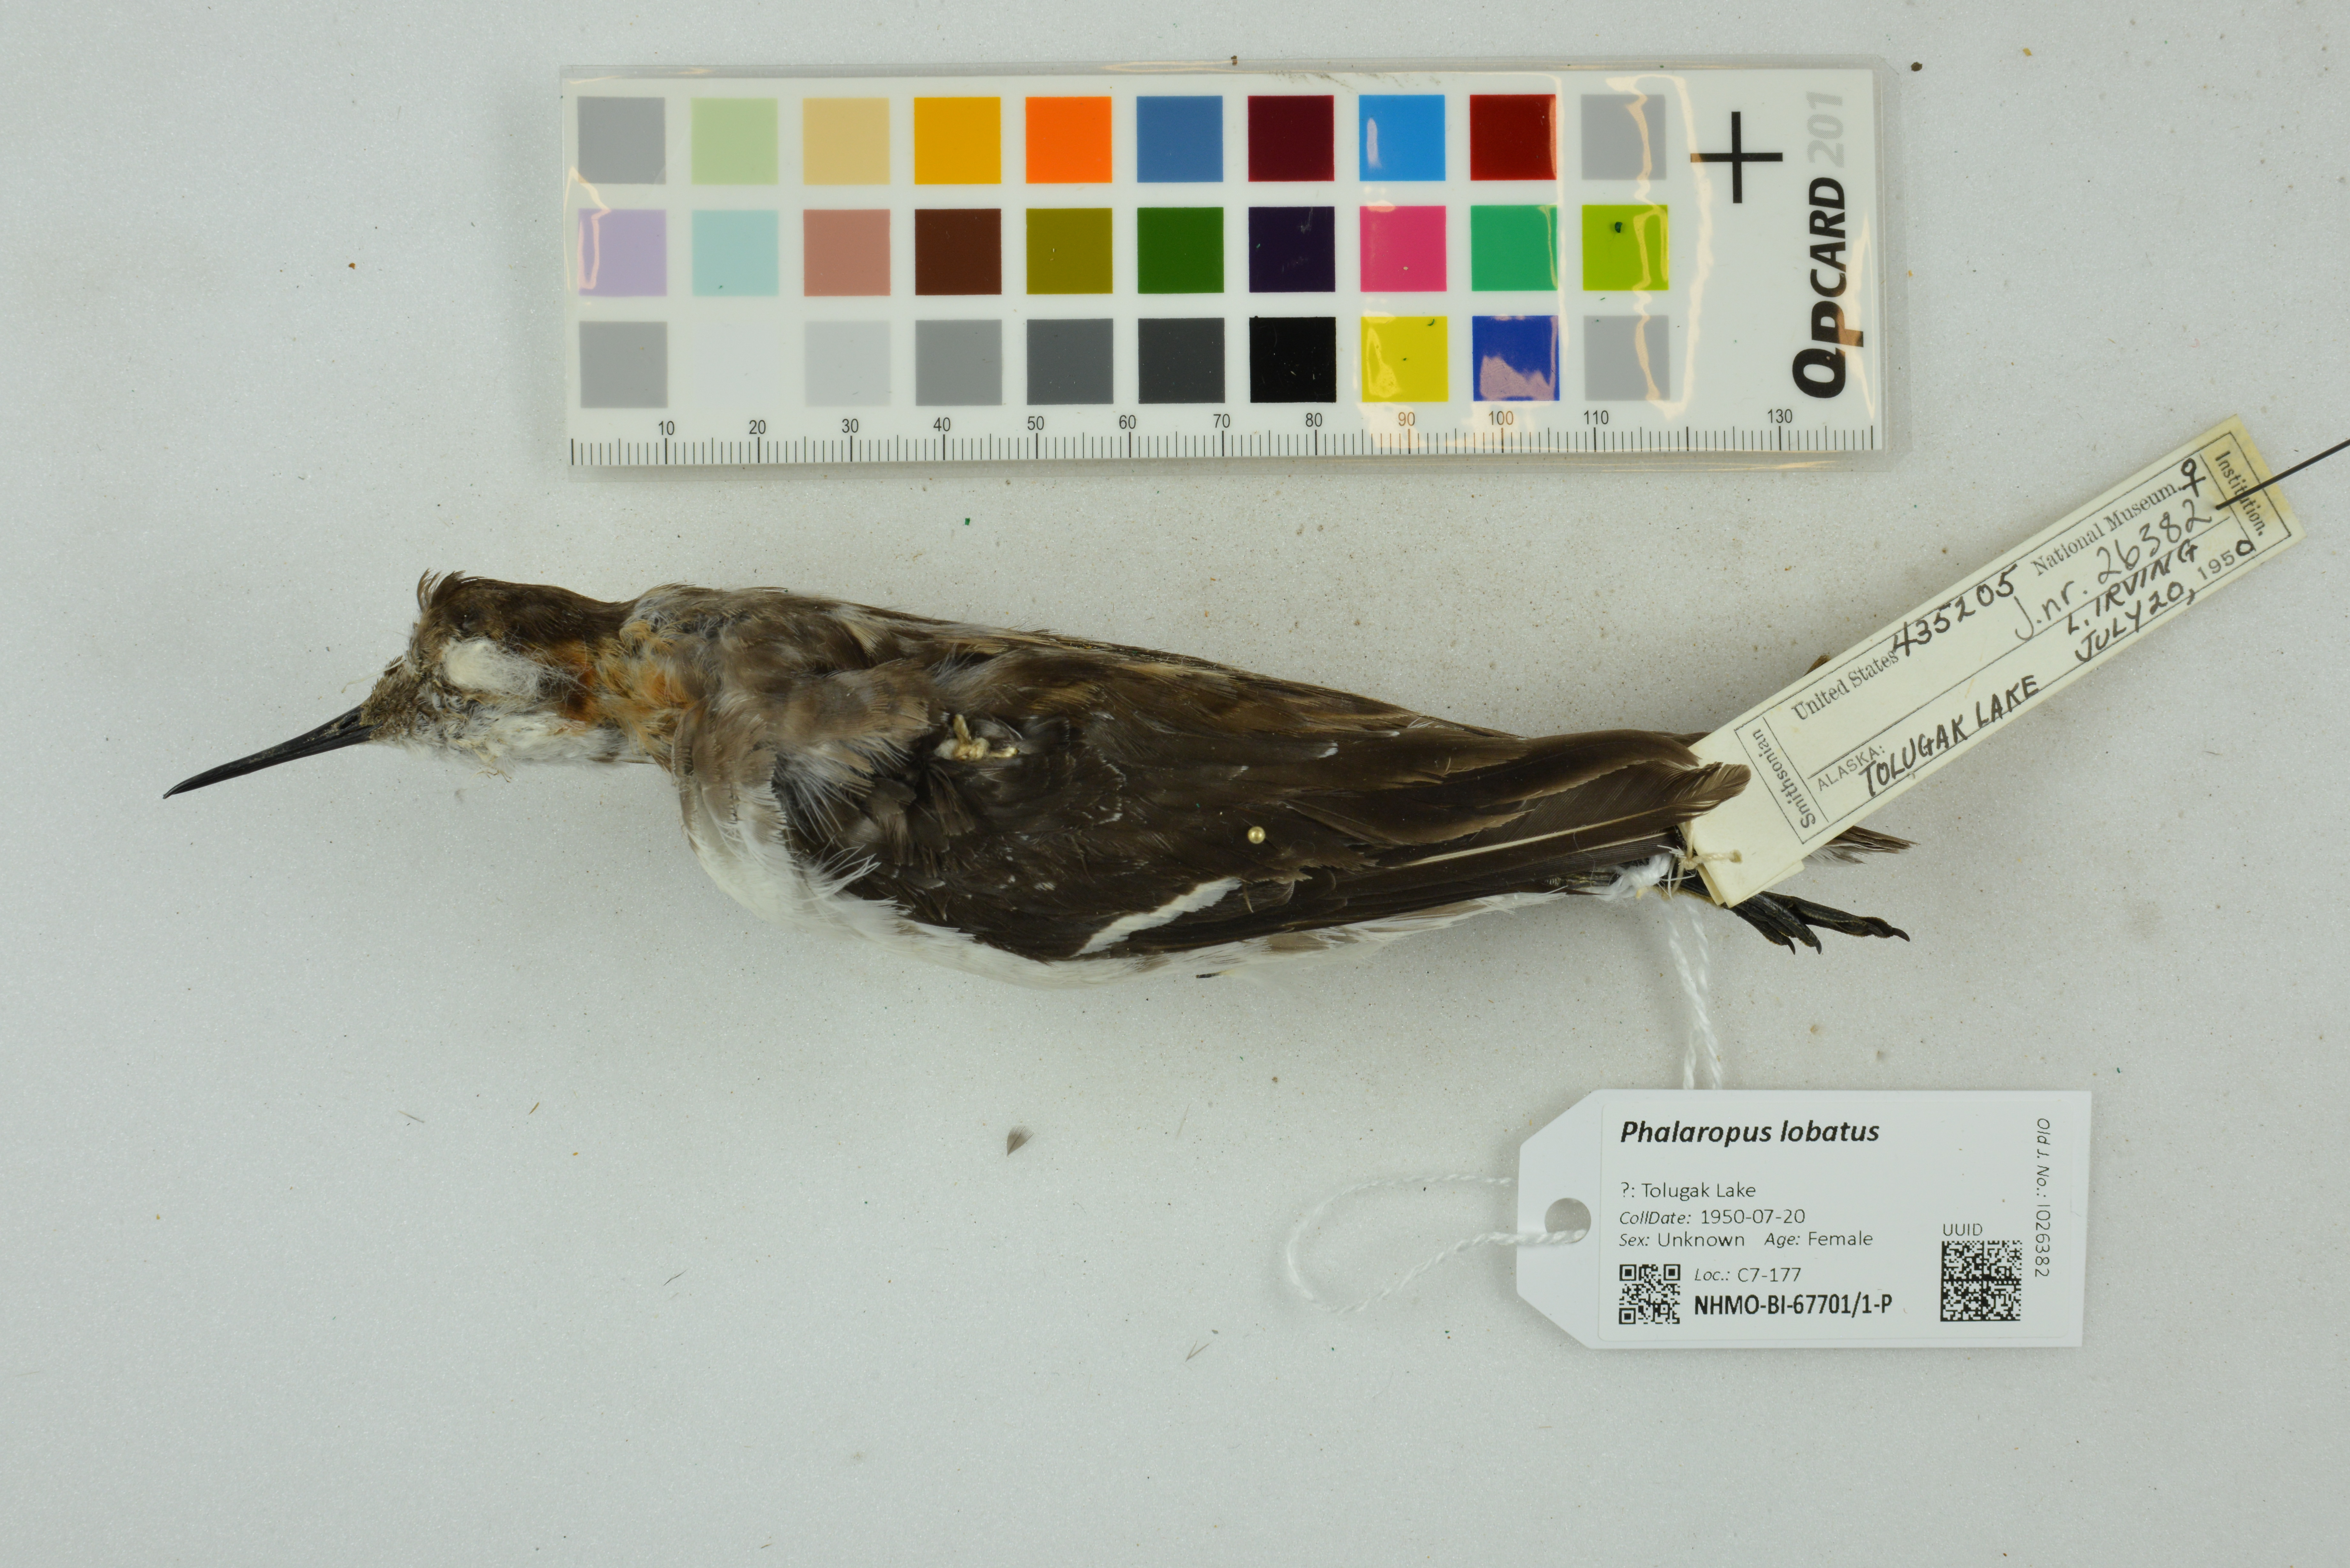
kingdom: Animalia
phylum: Chordata
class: Aves
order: Charadriiformes
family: Scolopacidae
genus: Phalaropus
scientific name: Phalaropus lobatus
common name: Red-necked phalarope
